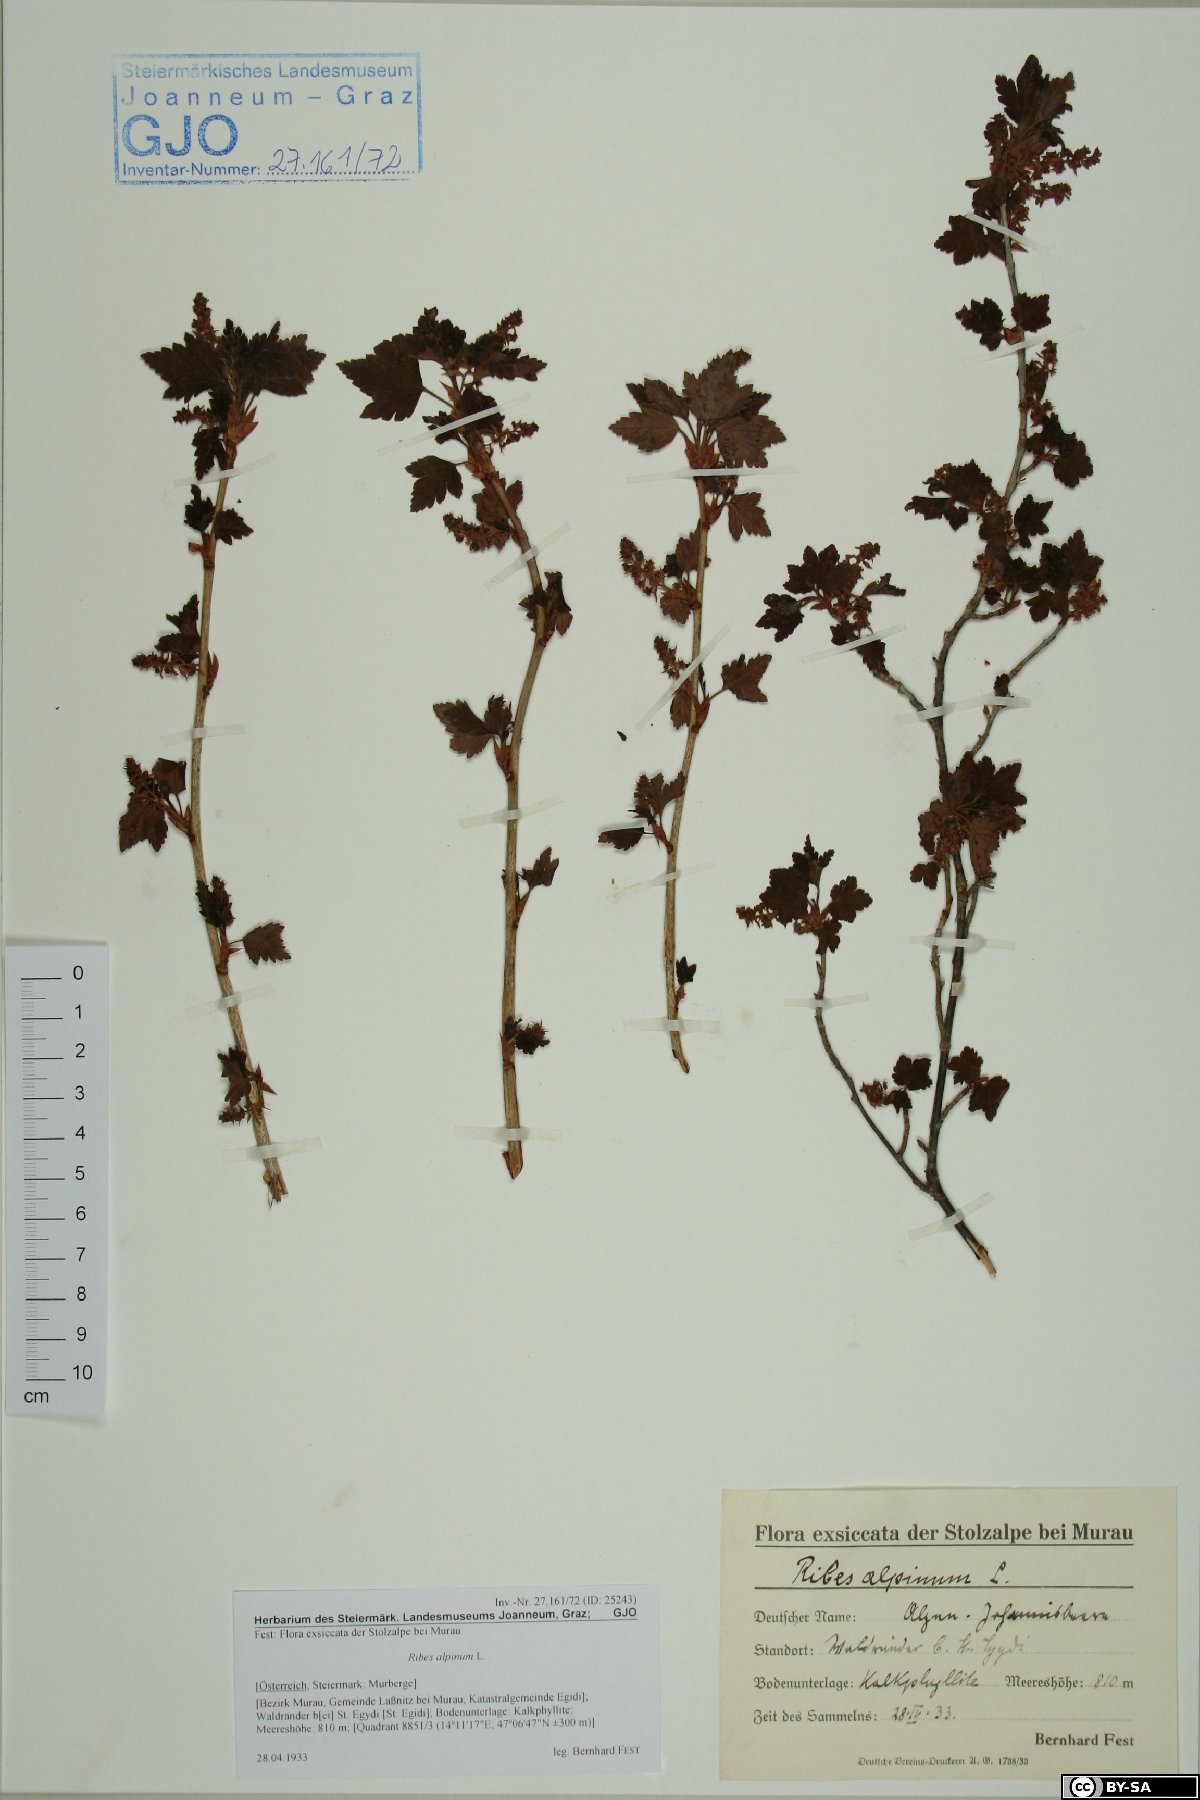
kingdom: Plantae
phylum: Tracheophyta
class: Magnoliopsida
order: Saxifragales
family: Grossulariaceae
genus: Ribes
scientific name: Ribes alpinum
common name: Alpine currant
